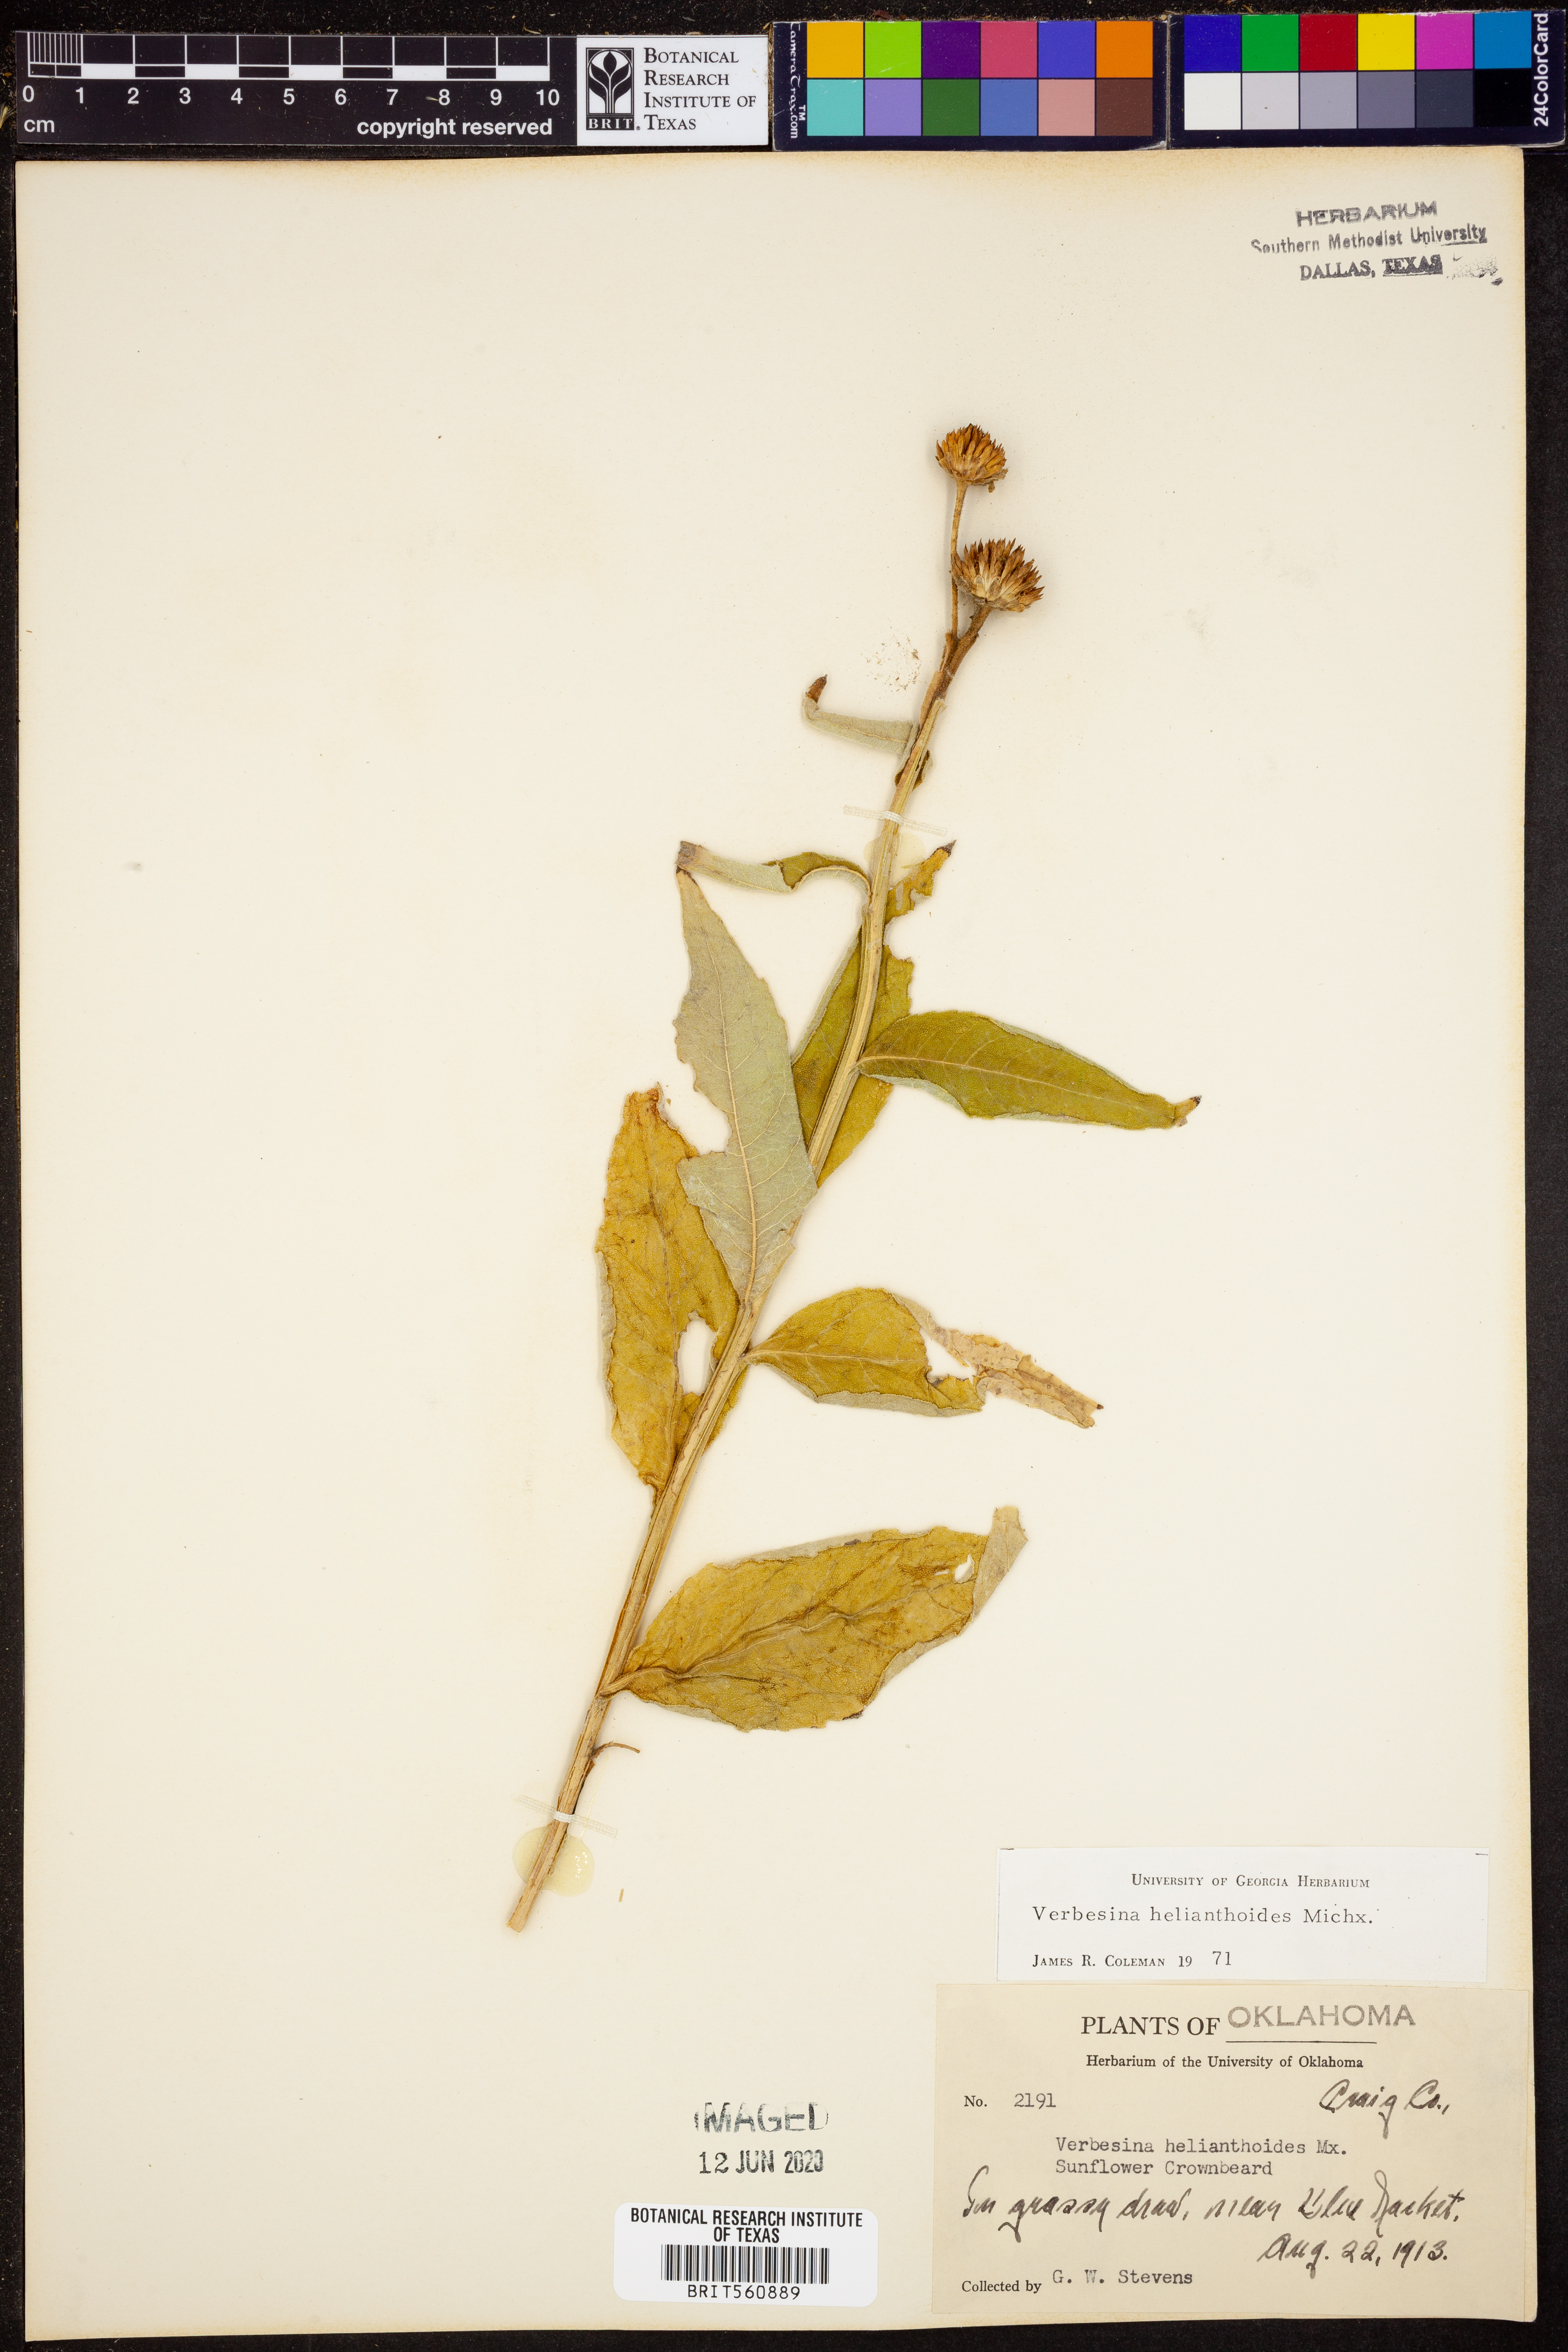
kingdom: Plantae
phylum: Tracheophyta
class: Magnoliopsida
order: Asterales
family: Asteraceae
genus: Verbesina
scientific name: Verbesina helianthoides
